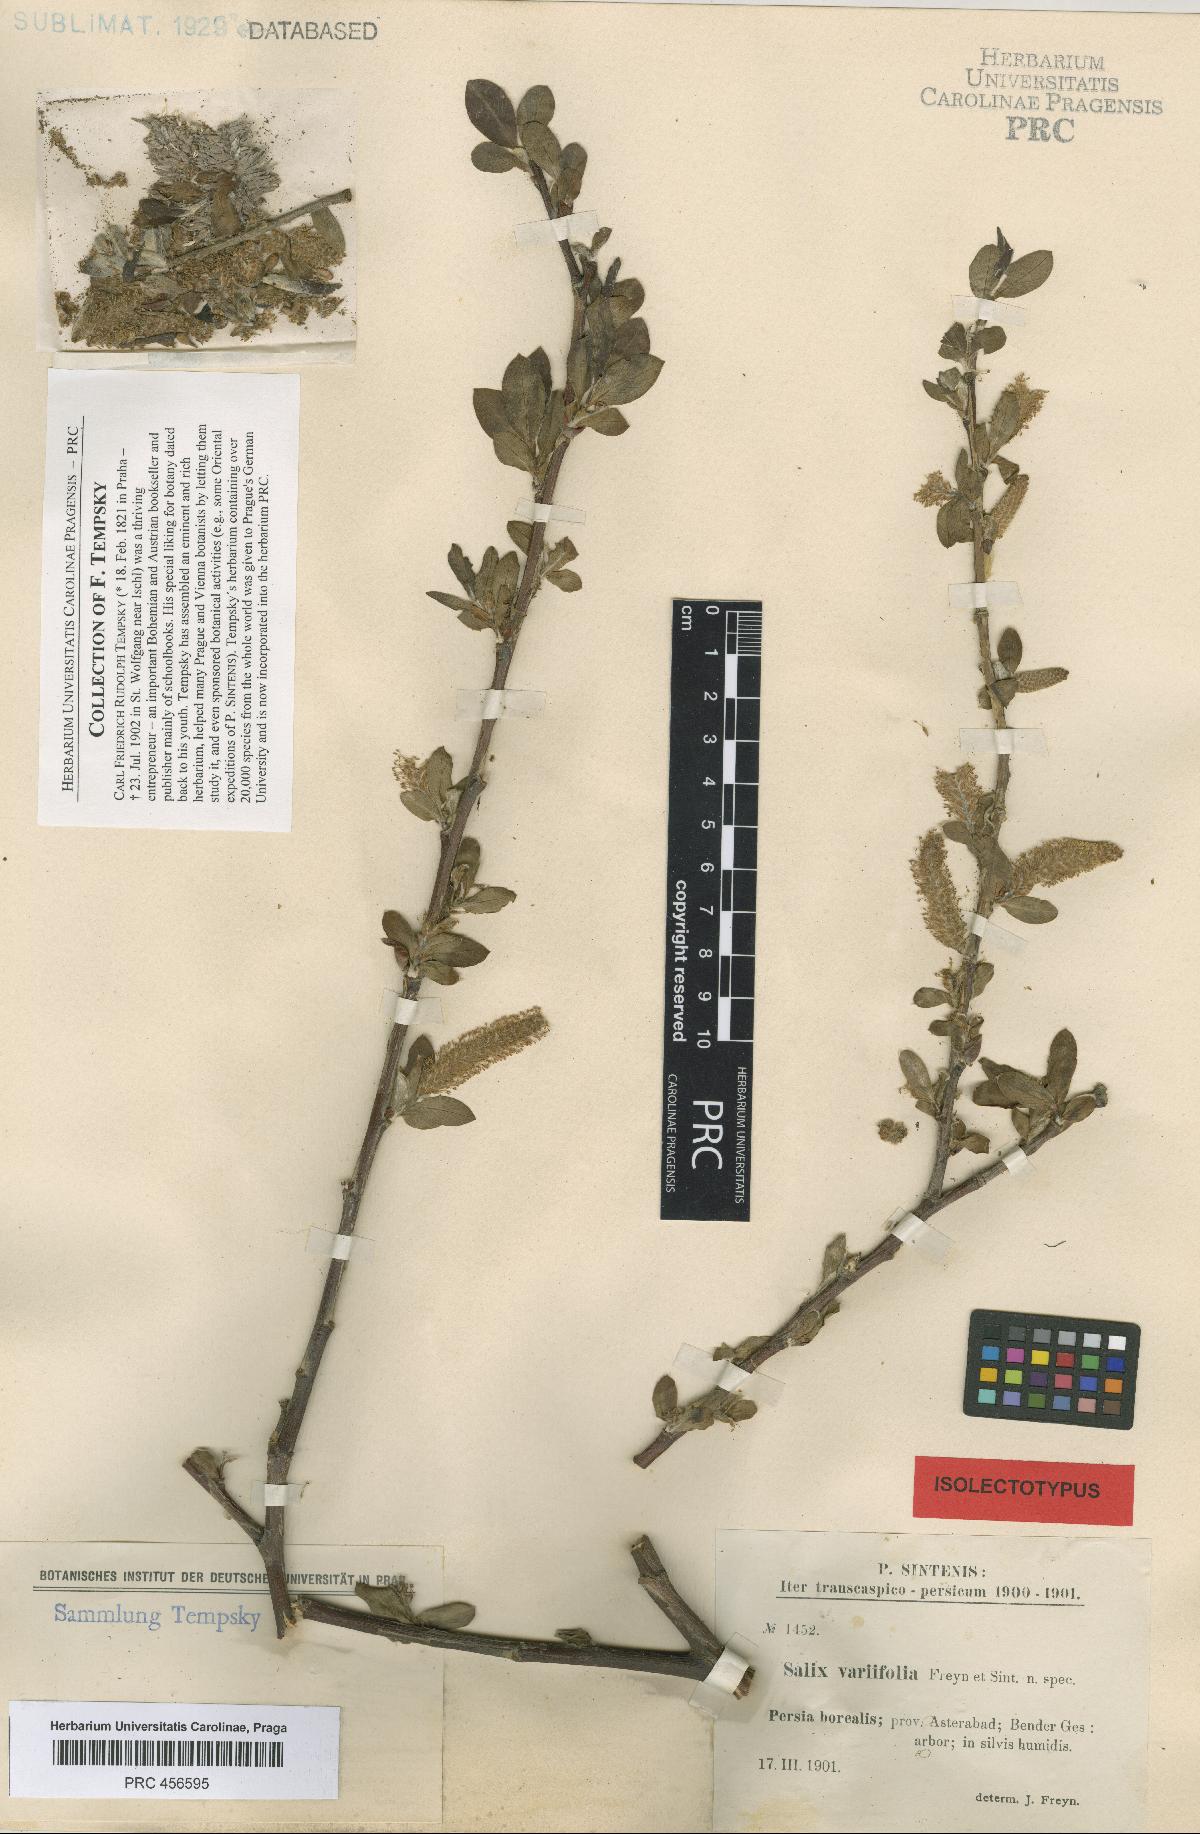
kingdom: Plantae
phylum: Tracheophyta
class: Magnoliopsida
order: Malpighiales
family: Salicaceae
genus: Salix
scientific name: Salix excelsa
